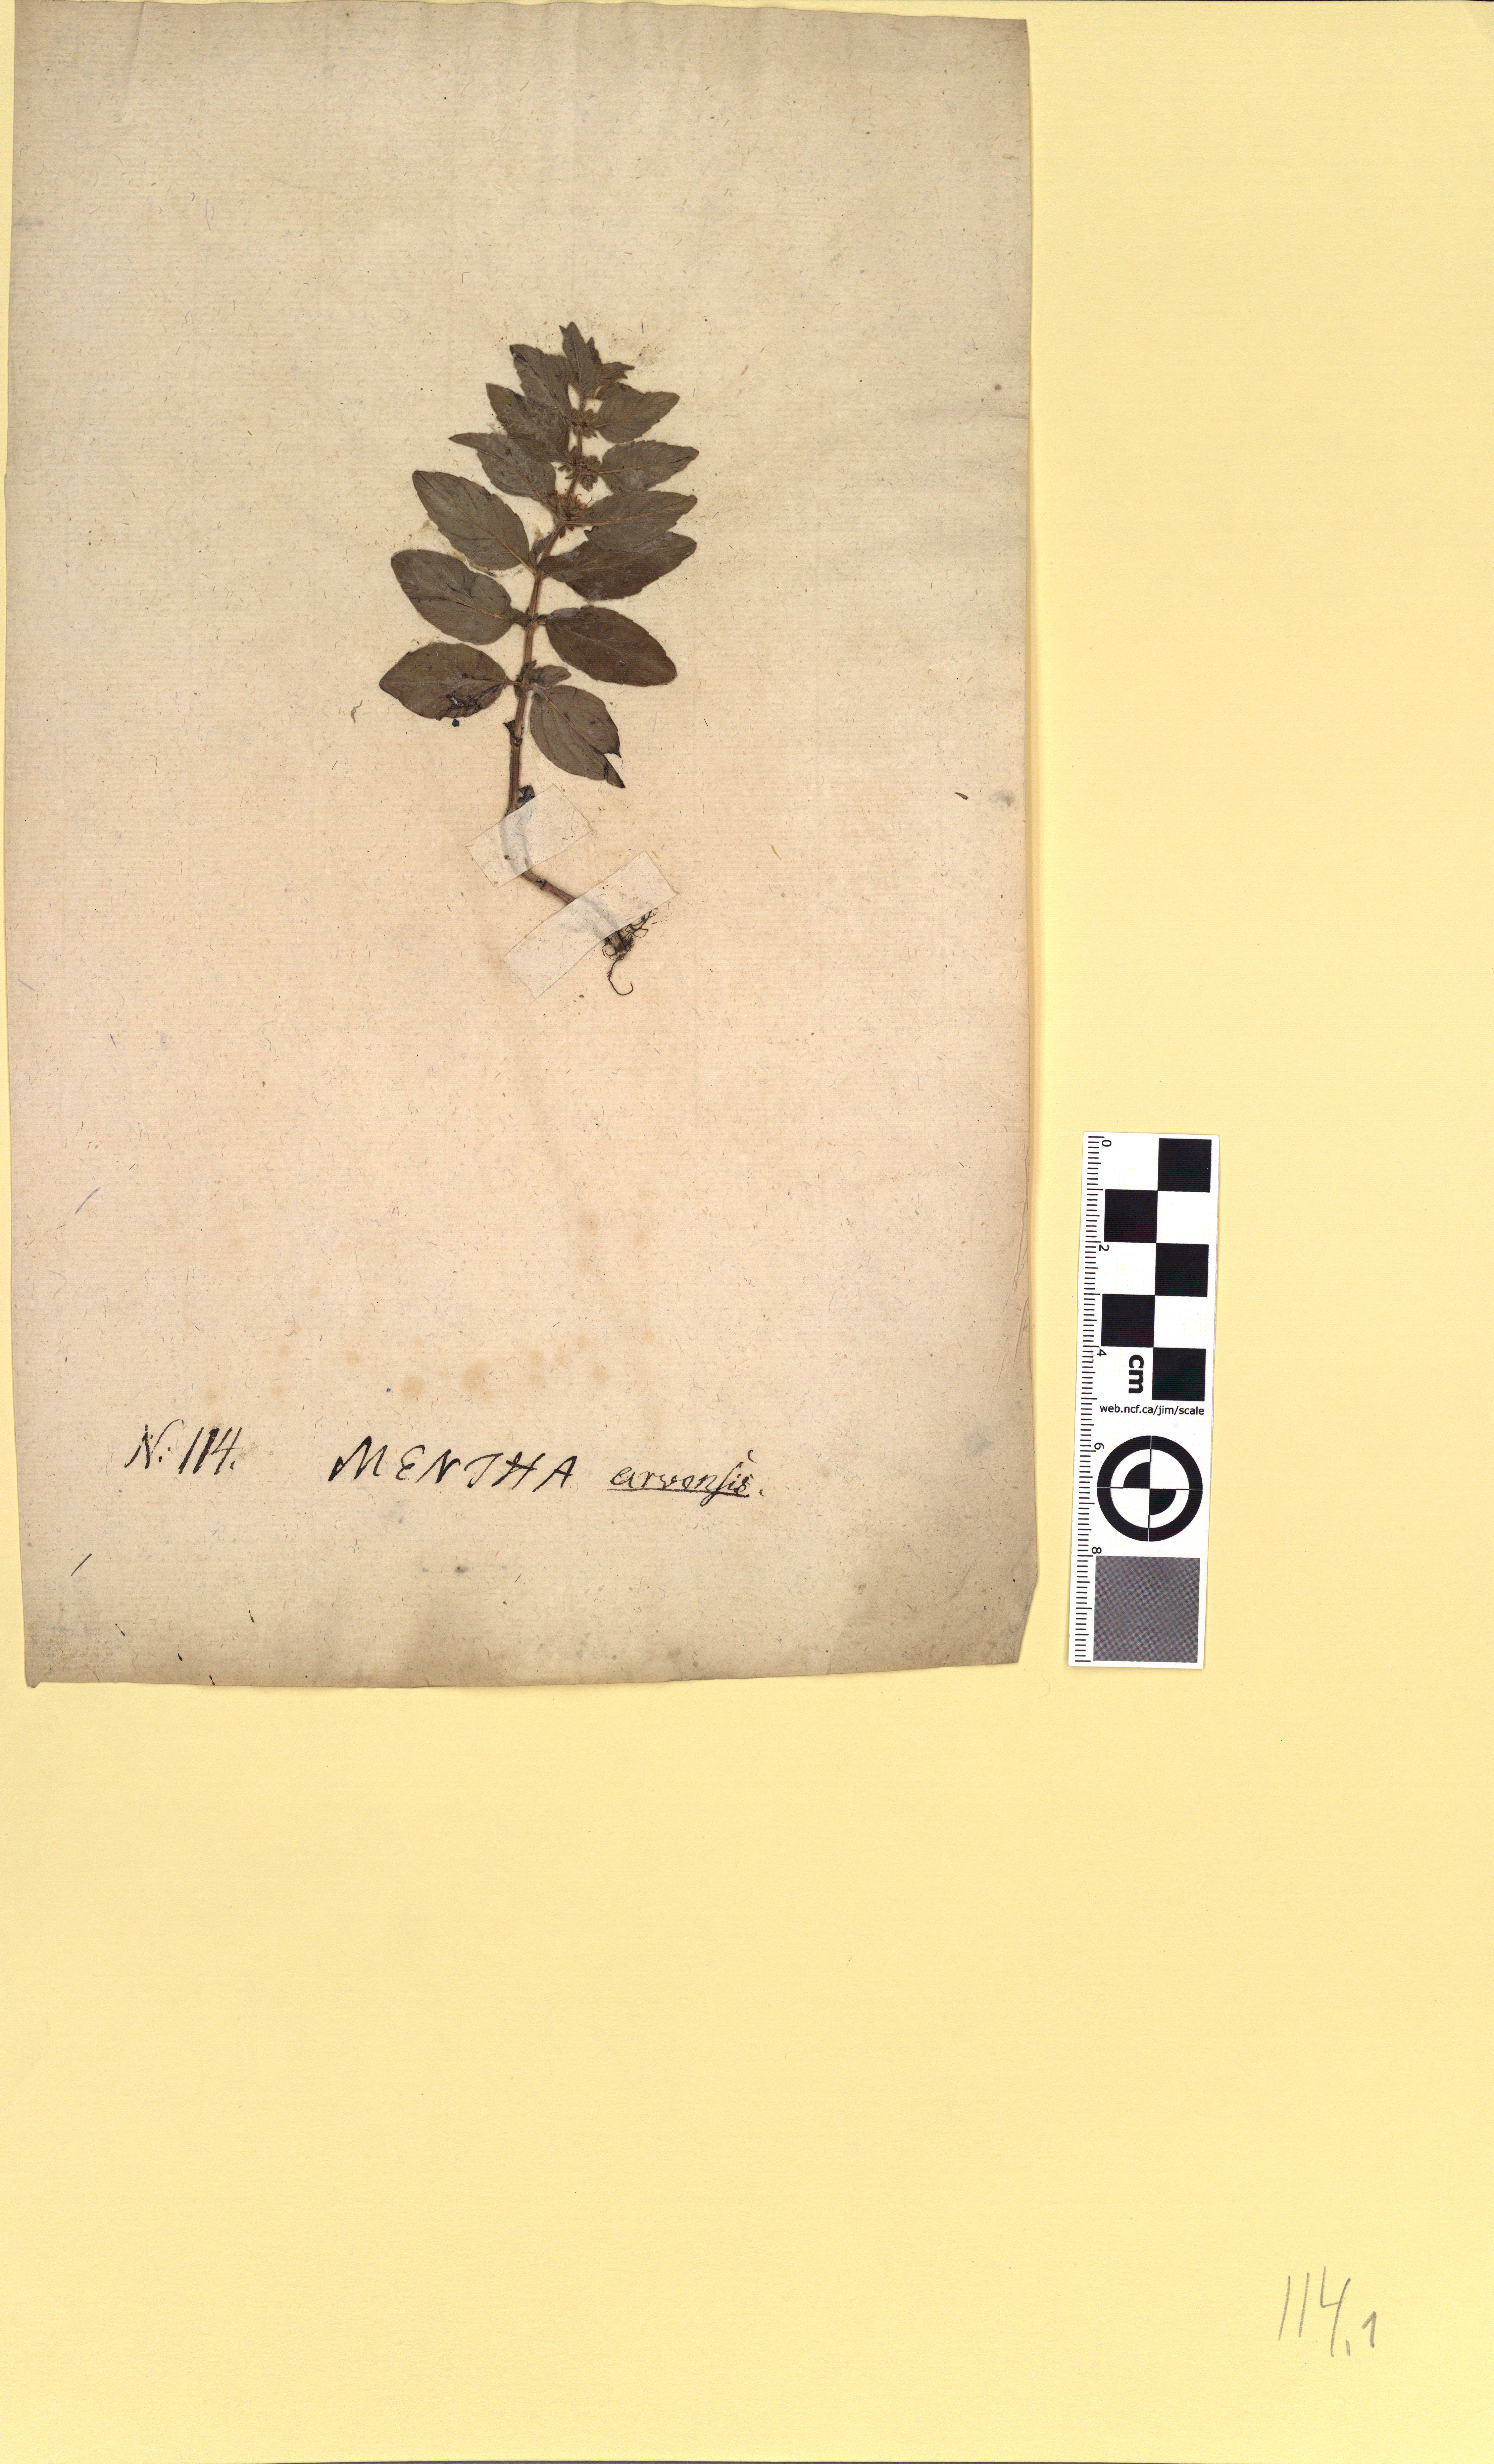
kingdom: Plantae
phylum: Tracheophyta
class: Magnoliopsida
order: Lamiales
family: Lamiaceae
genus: Mentha
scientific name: Mentha arvensis
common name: Corn mint
